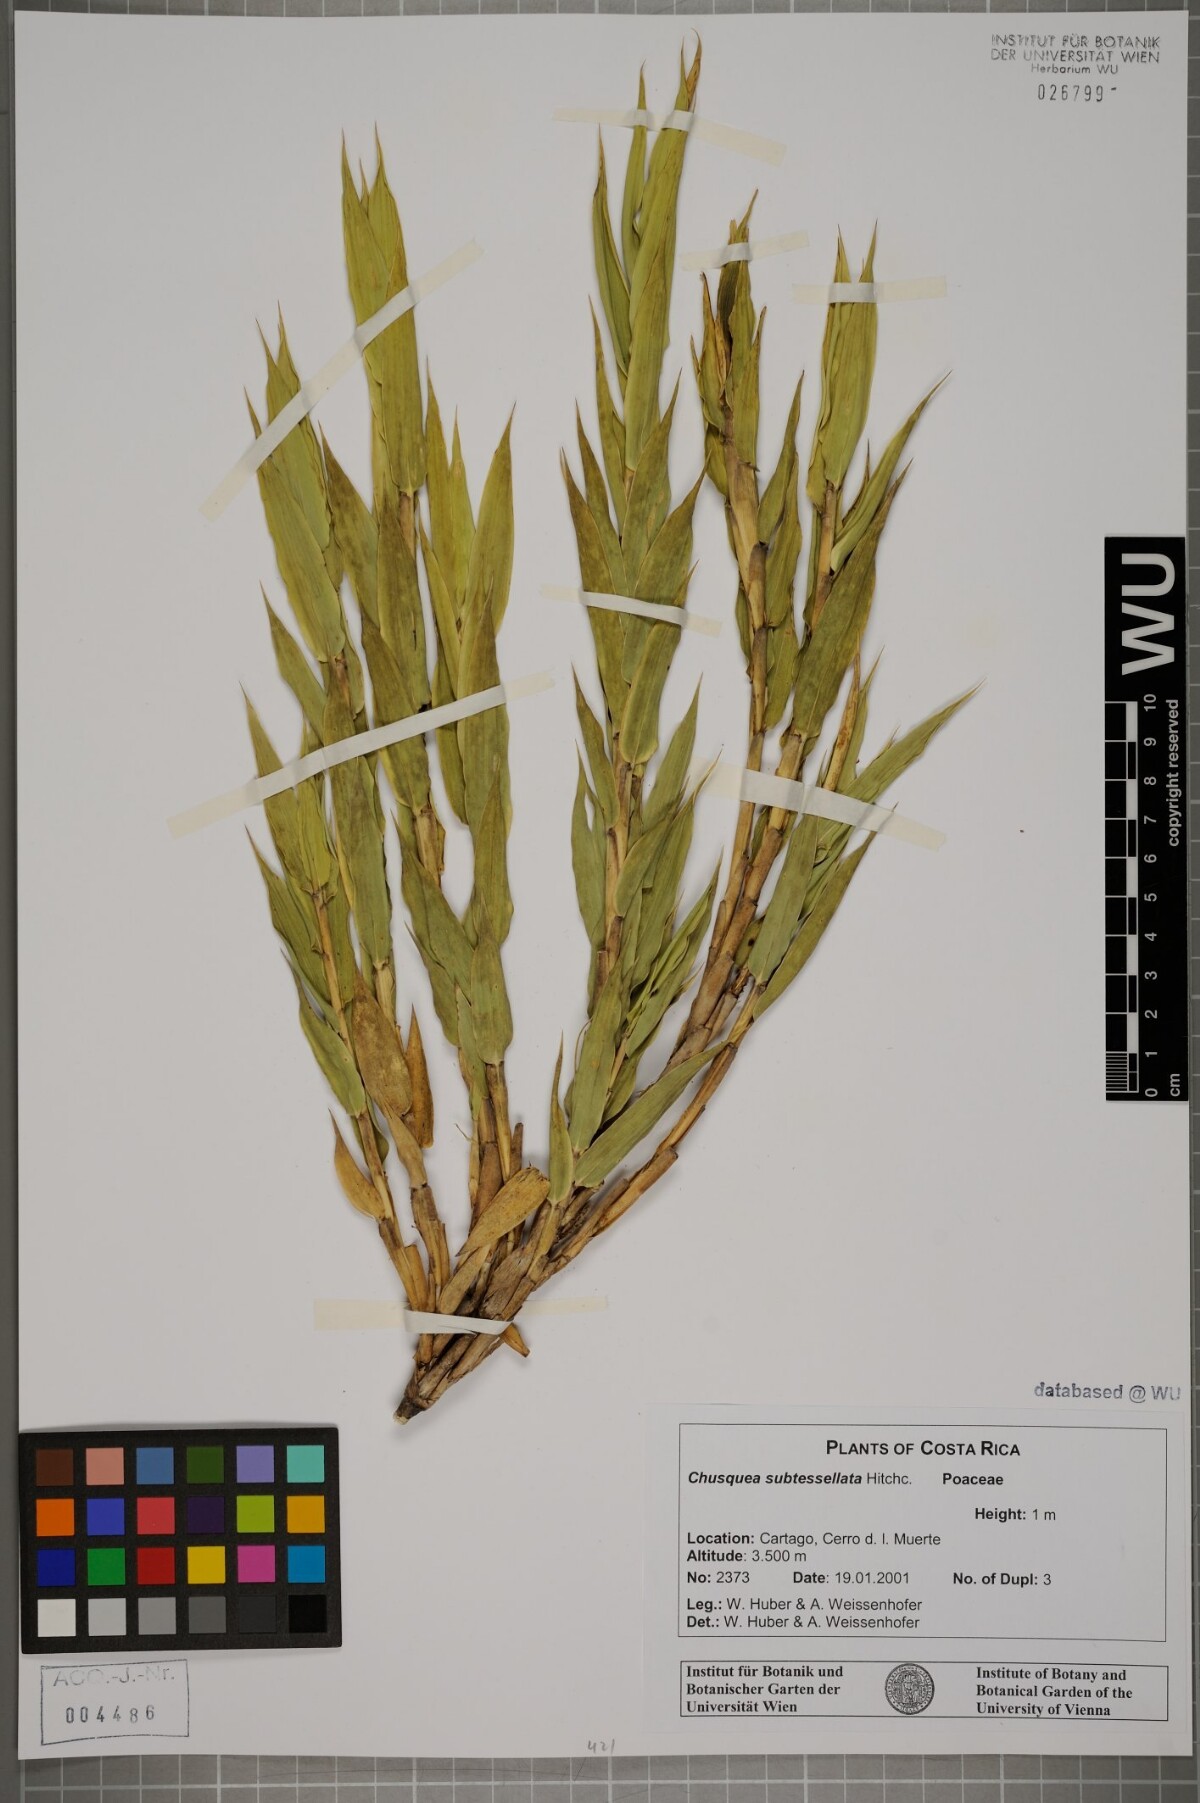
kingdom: Plantae
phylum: Tracheophyta
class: Liliopsida
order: Poales
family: Poaceae
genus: Chusquea
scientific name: Chusquea subtessellata
